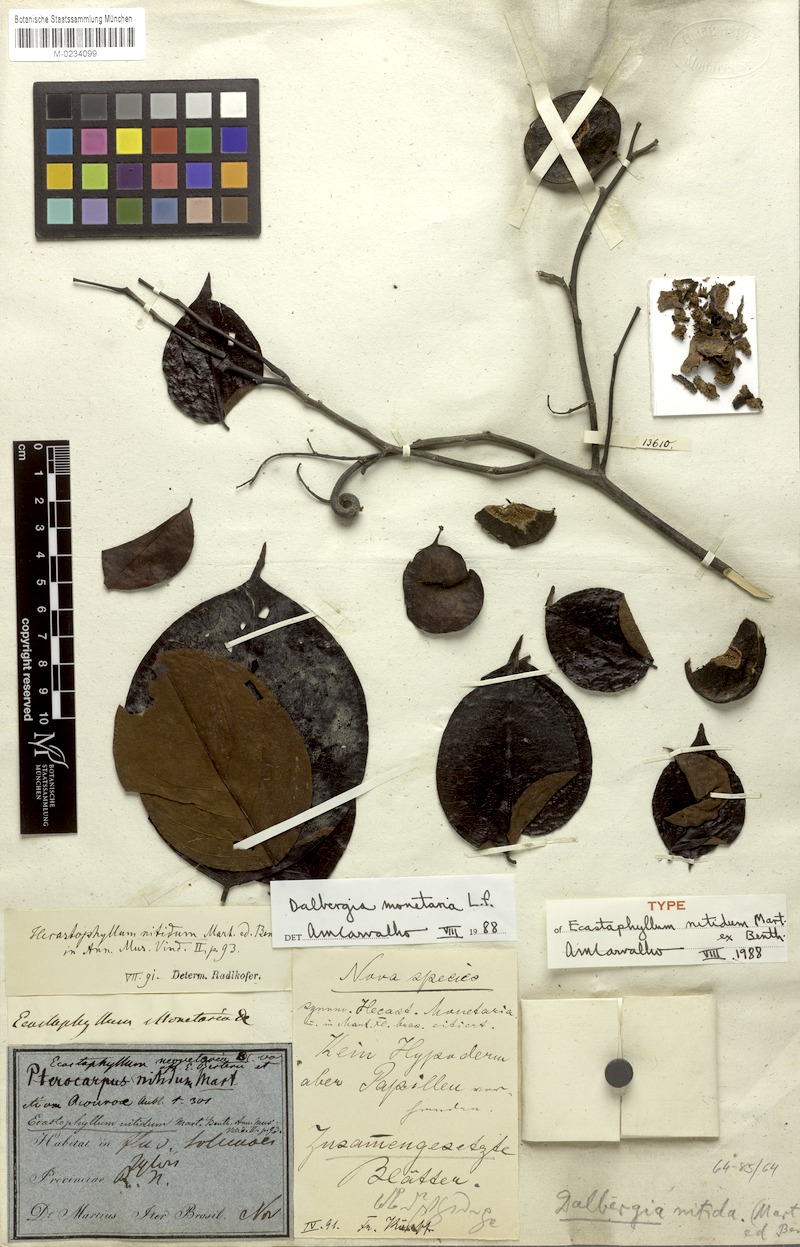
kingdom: Plantae
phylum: Tracheophyta
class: Magnoliopsida
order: Fabales
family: Fabaceae
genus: Dalbergia
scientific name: Dalbergia ovalis
